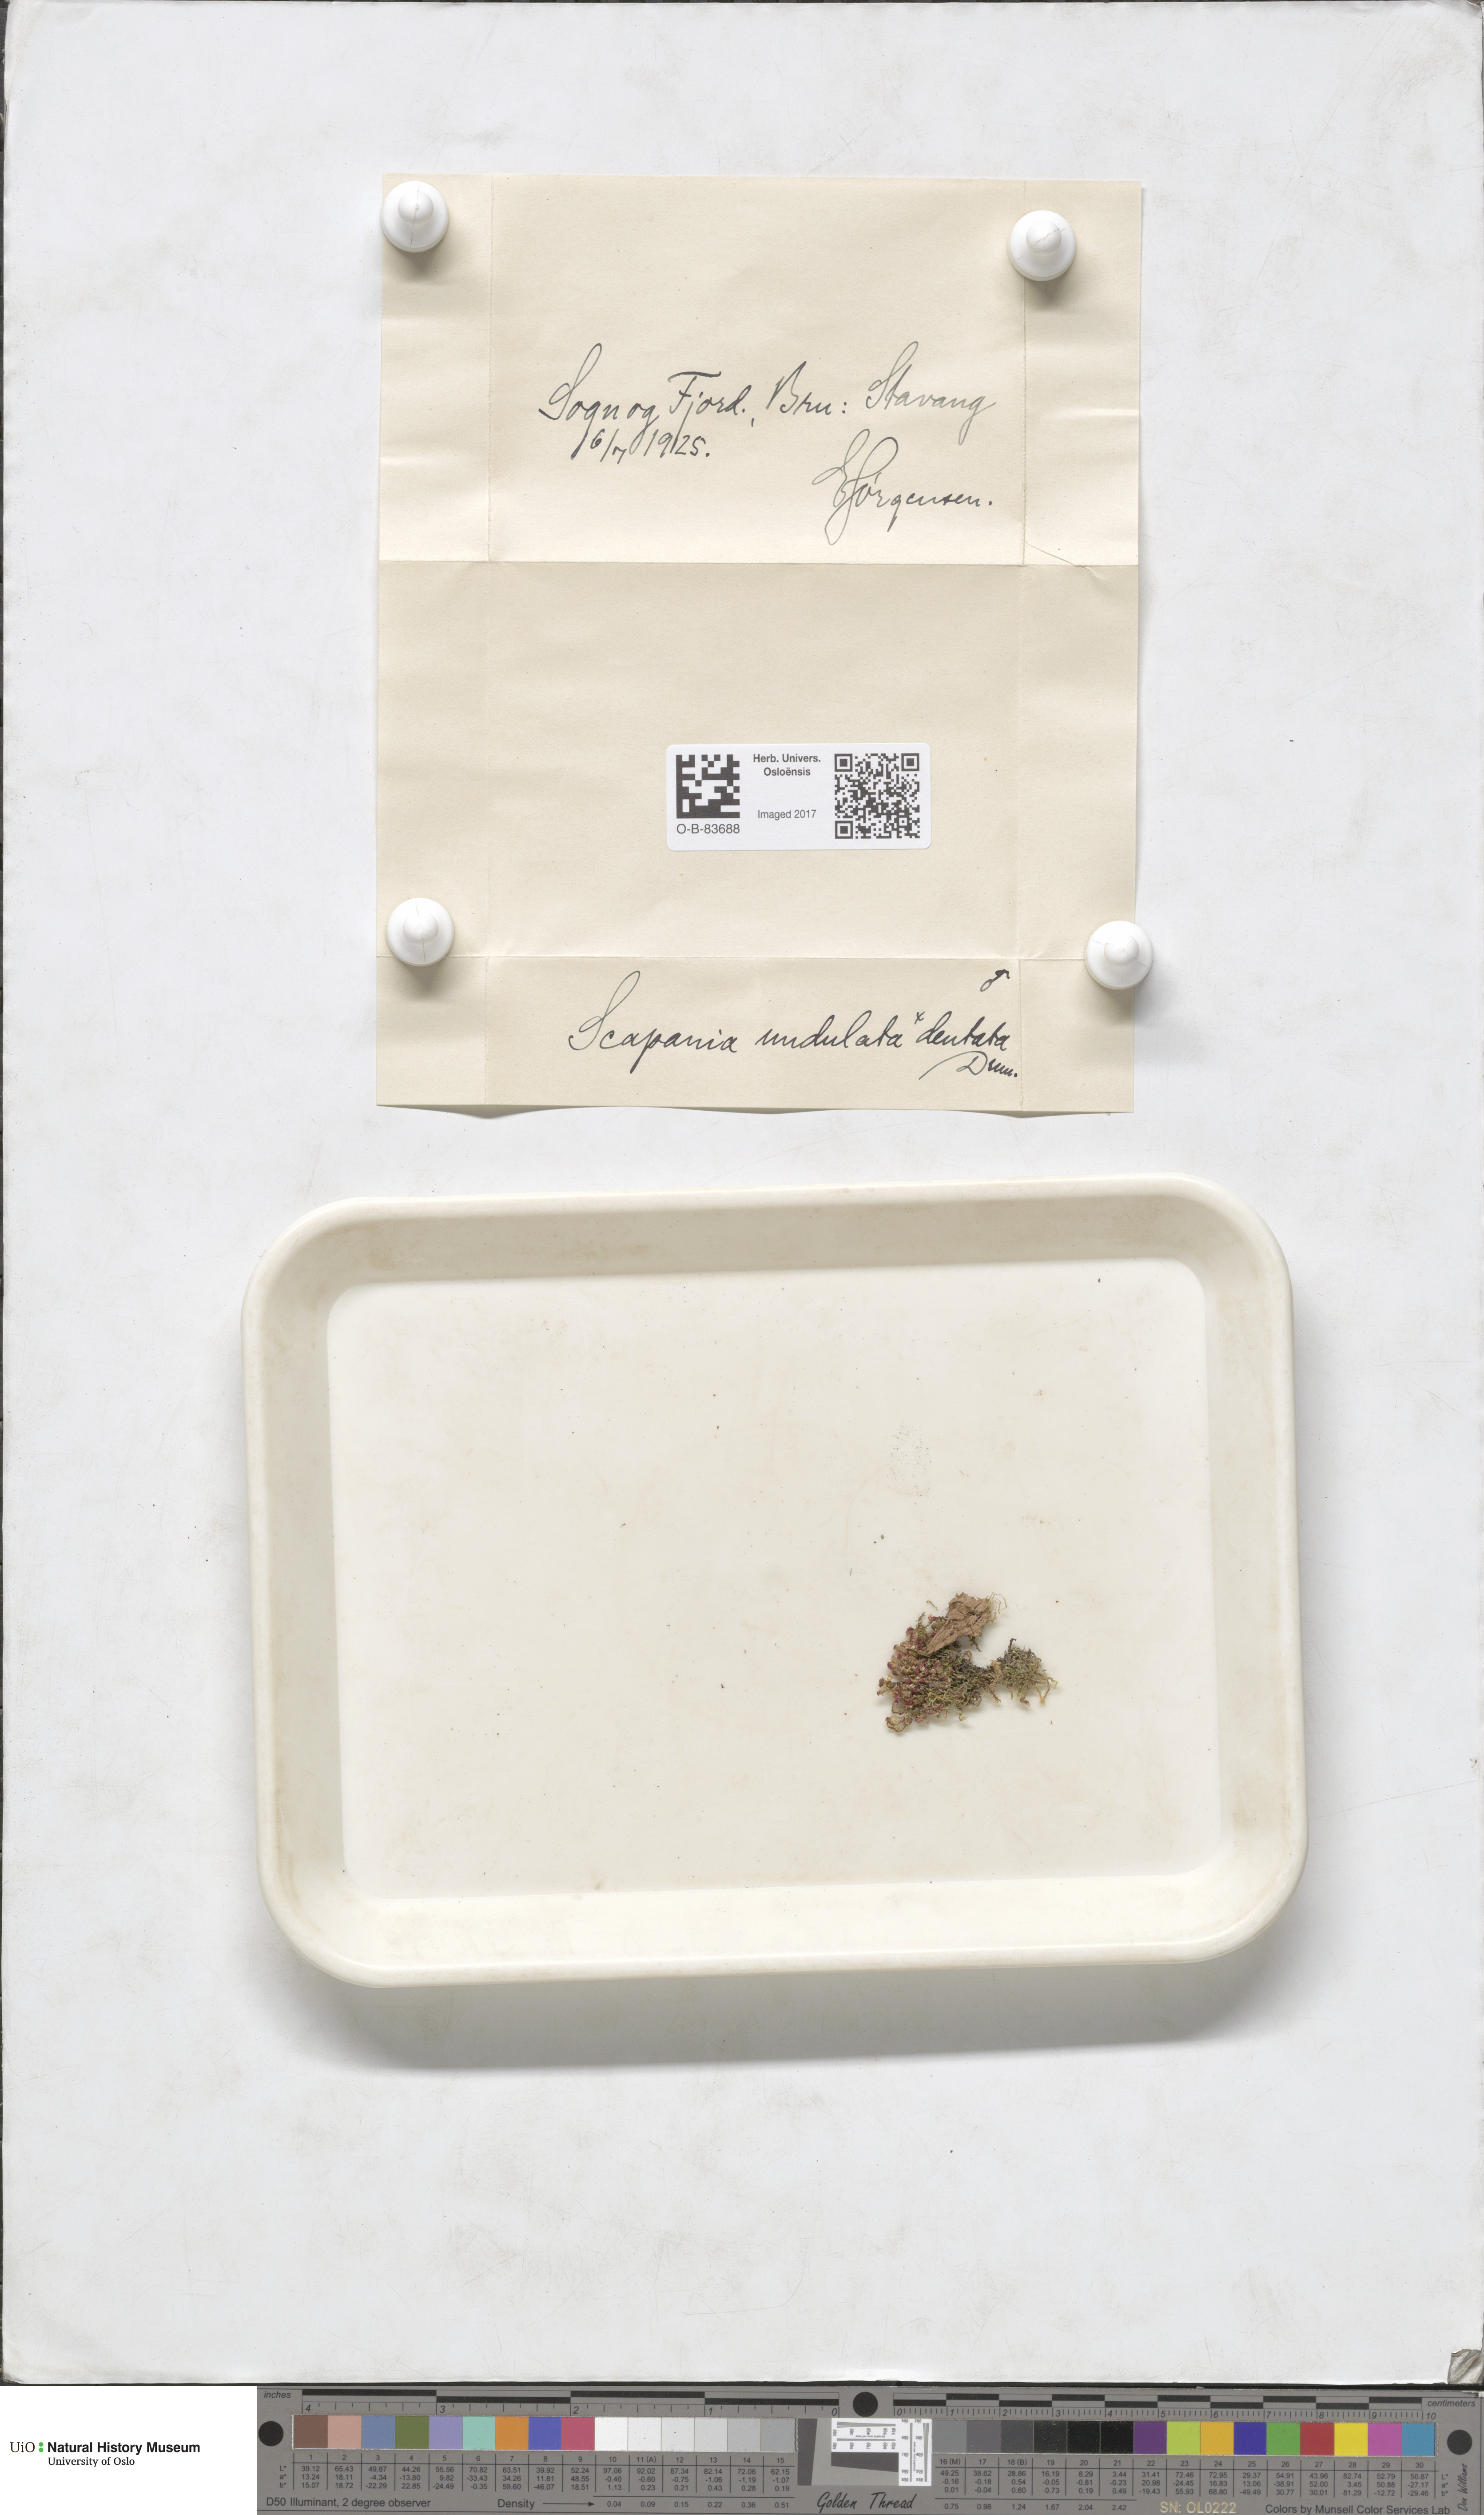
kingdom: Plantae
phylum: Marchantiophyta
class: Jungermanniopsida
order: Jungermanniales
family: Scapaniaceae
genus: Scapania
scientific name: Scapania undulata
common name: Water earwort
